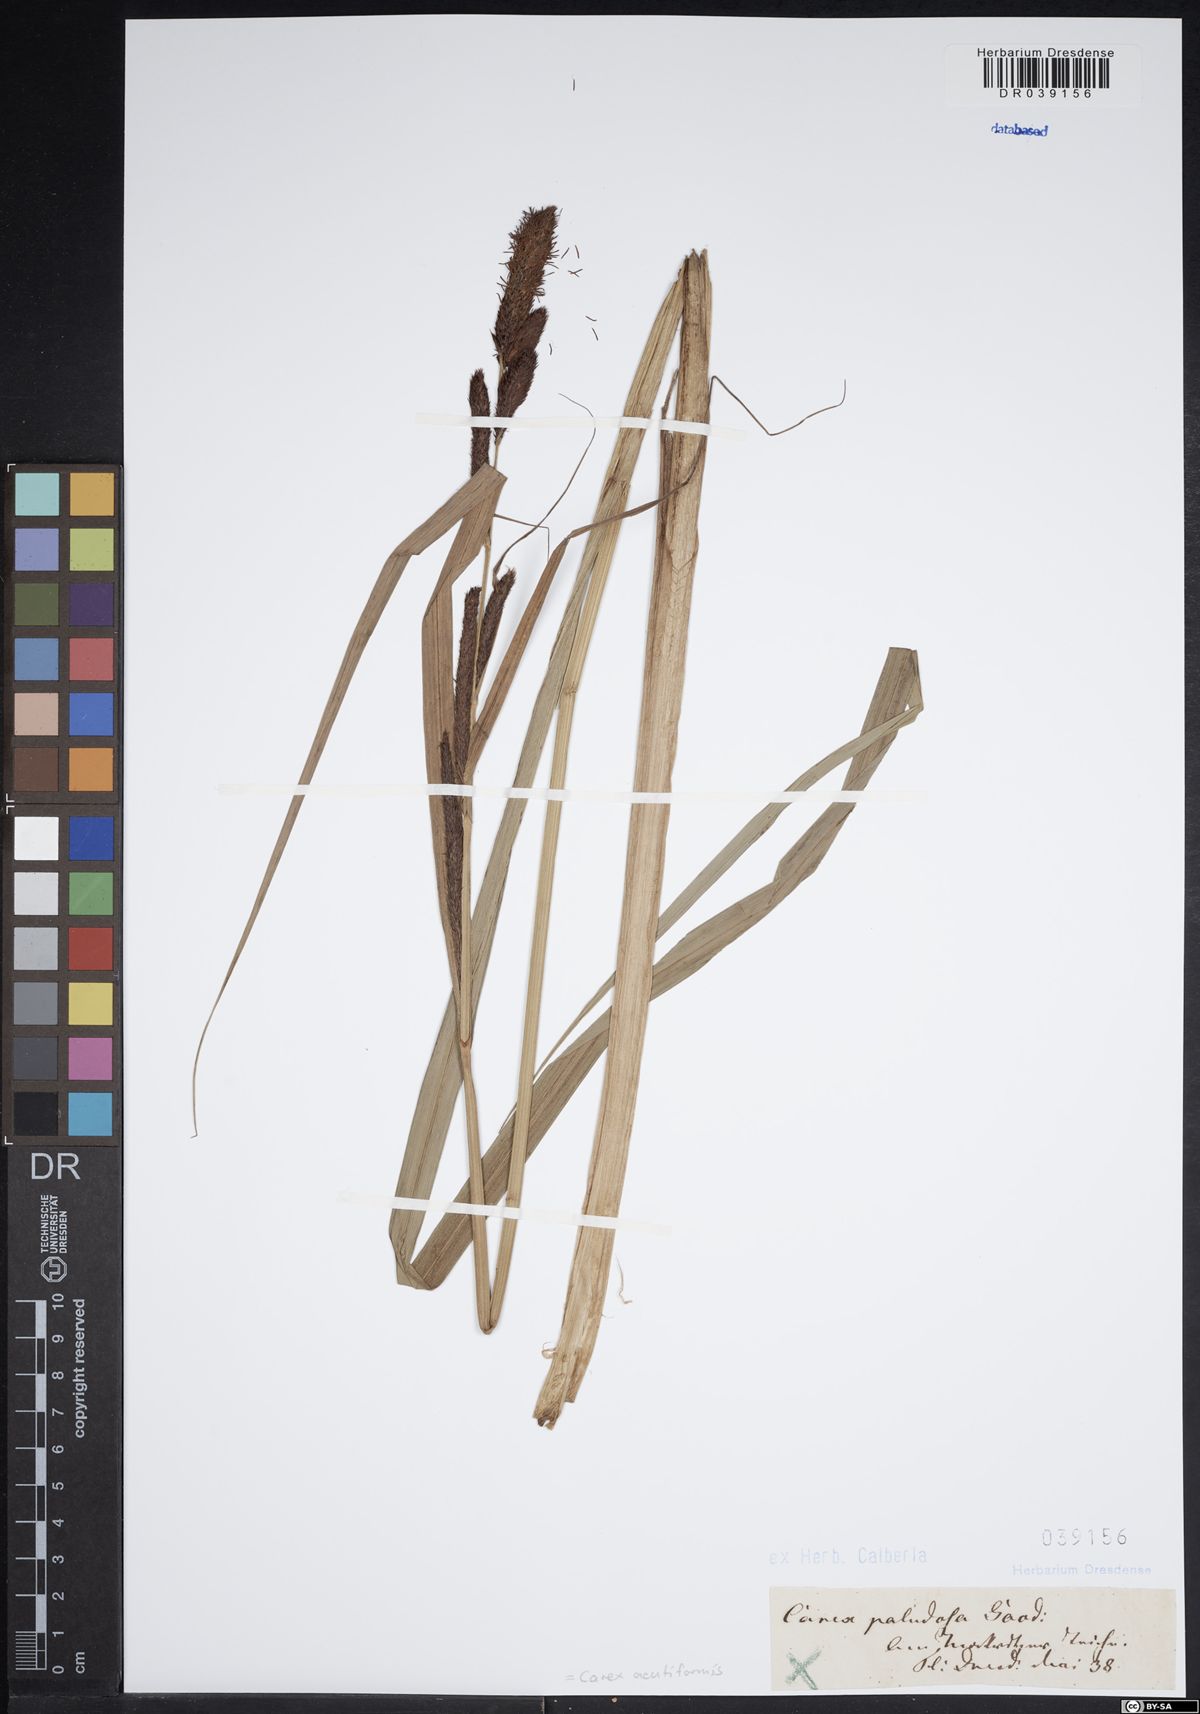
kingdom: Plantae
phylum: Tracheophyta
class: Liliopsida
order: Poales
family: Cyperaceae
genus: Carex
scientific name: Carex acutiformis
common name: Lesser pond-sedge
